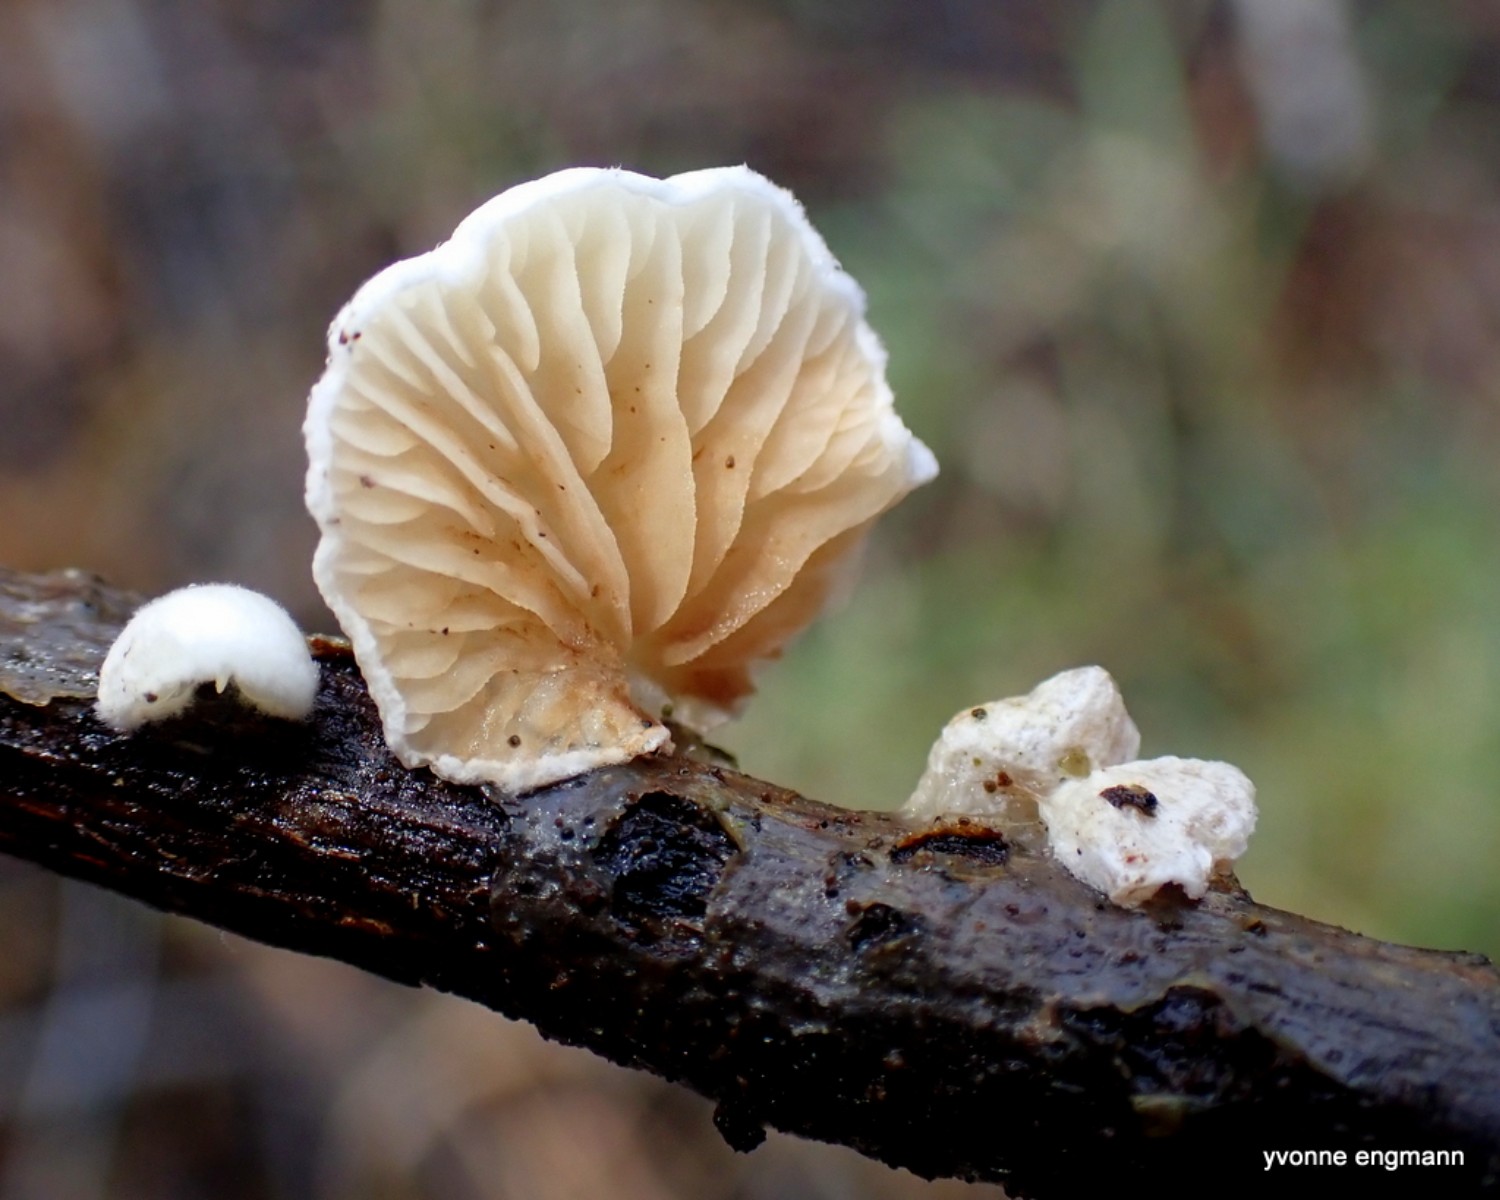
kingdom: Fungi
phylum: Basidiomycota
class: Agaricomycetes
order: Agaricales
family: Crepidotaceae
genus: Crepidotus
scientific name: Crepidotus
